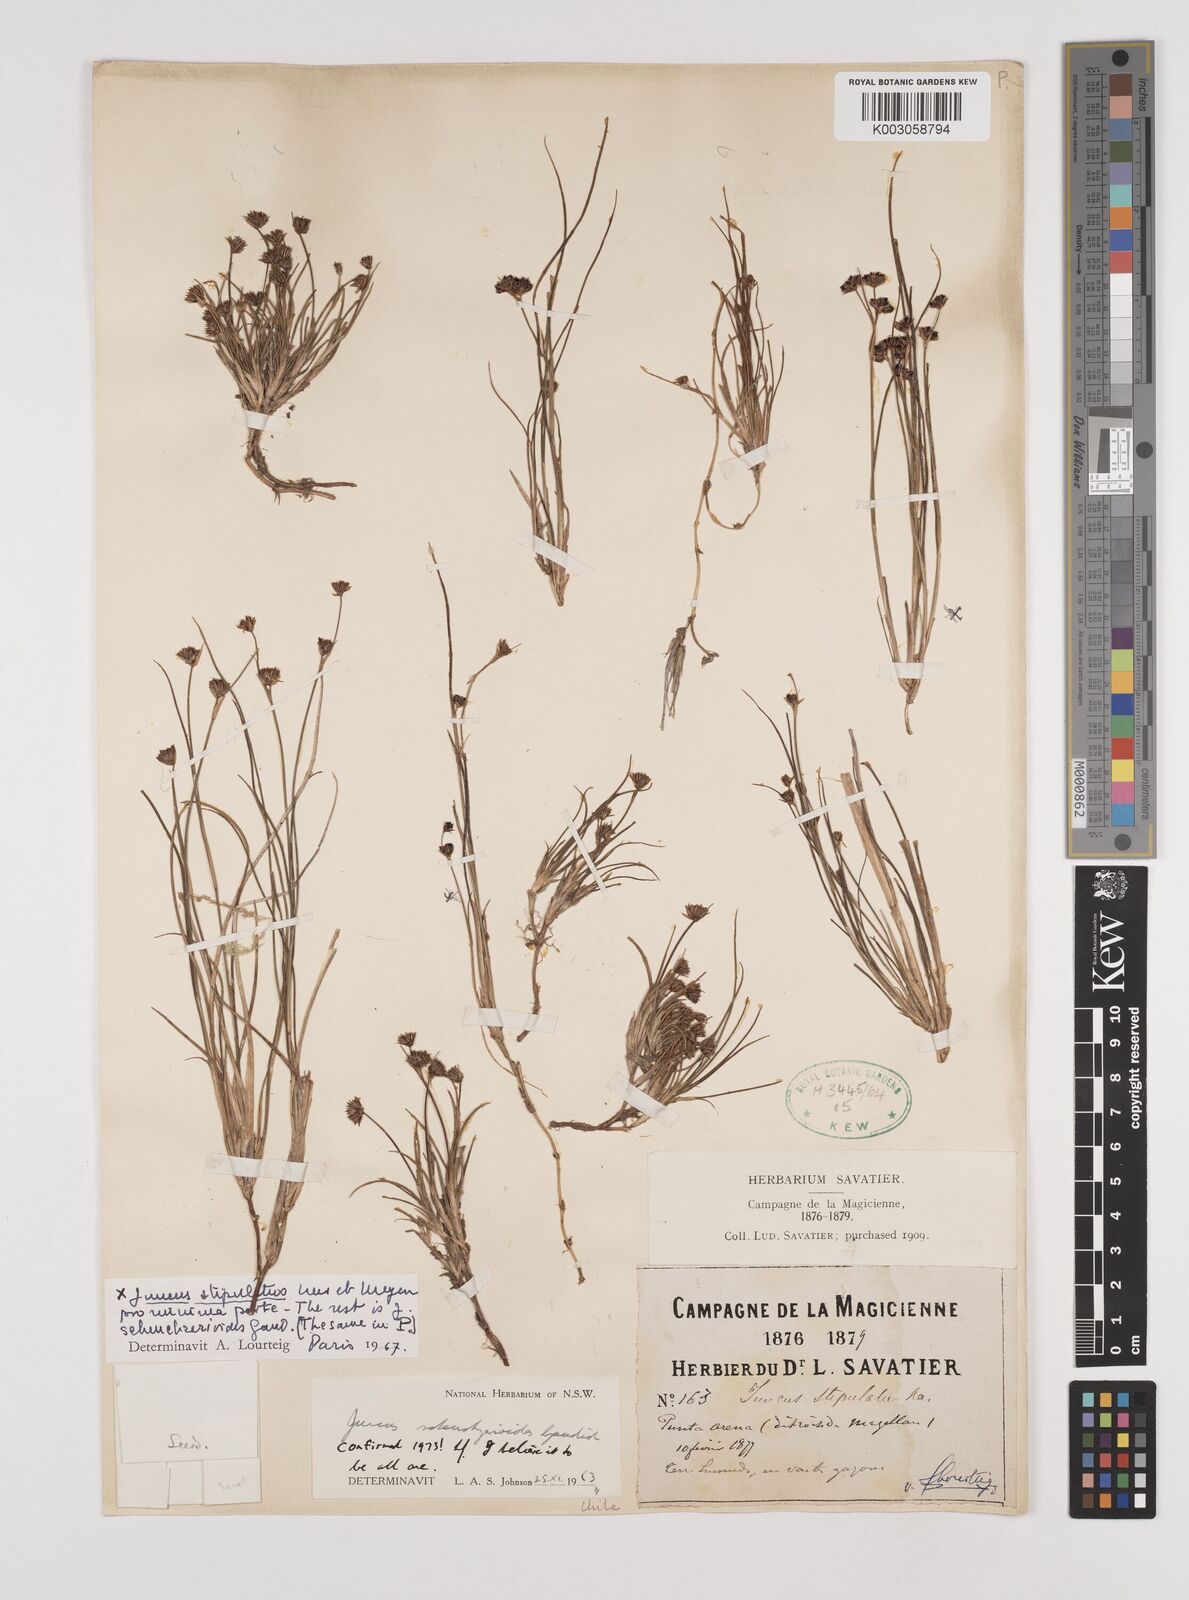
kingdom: Plantae
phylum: Tracheophyta
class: Liliopsida
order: Poales
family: Juncaceae
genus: Juncus
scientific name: Juncus scheuchzerioides
